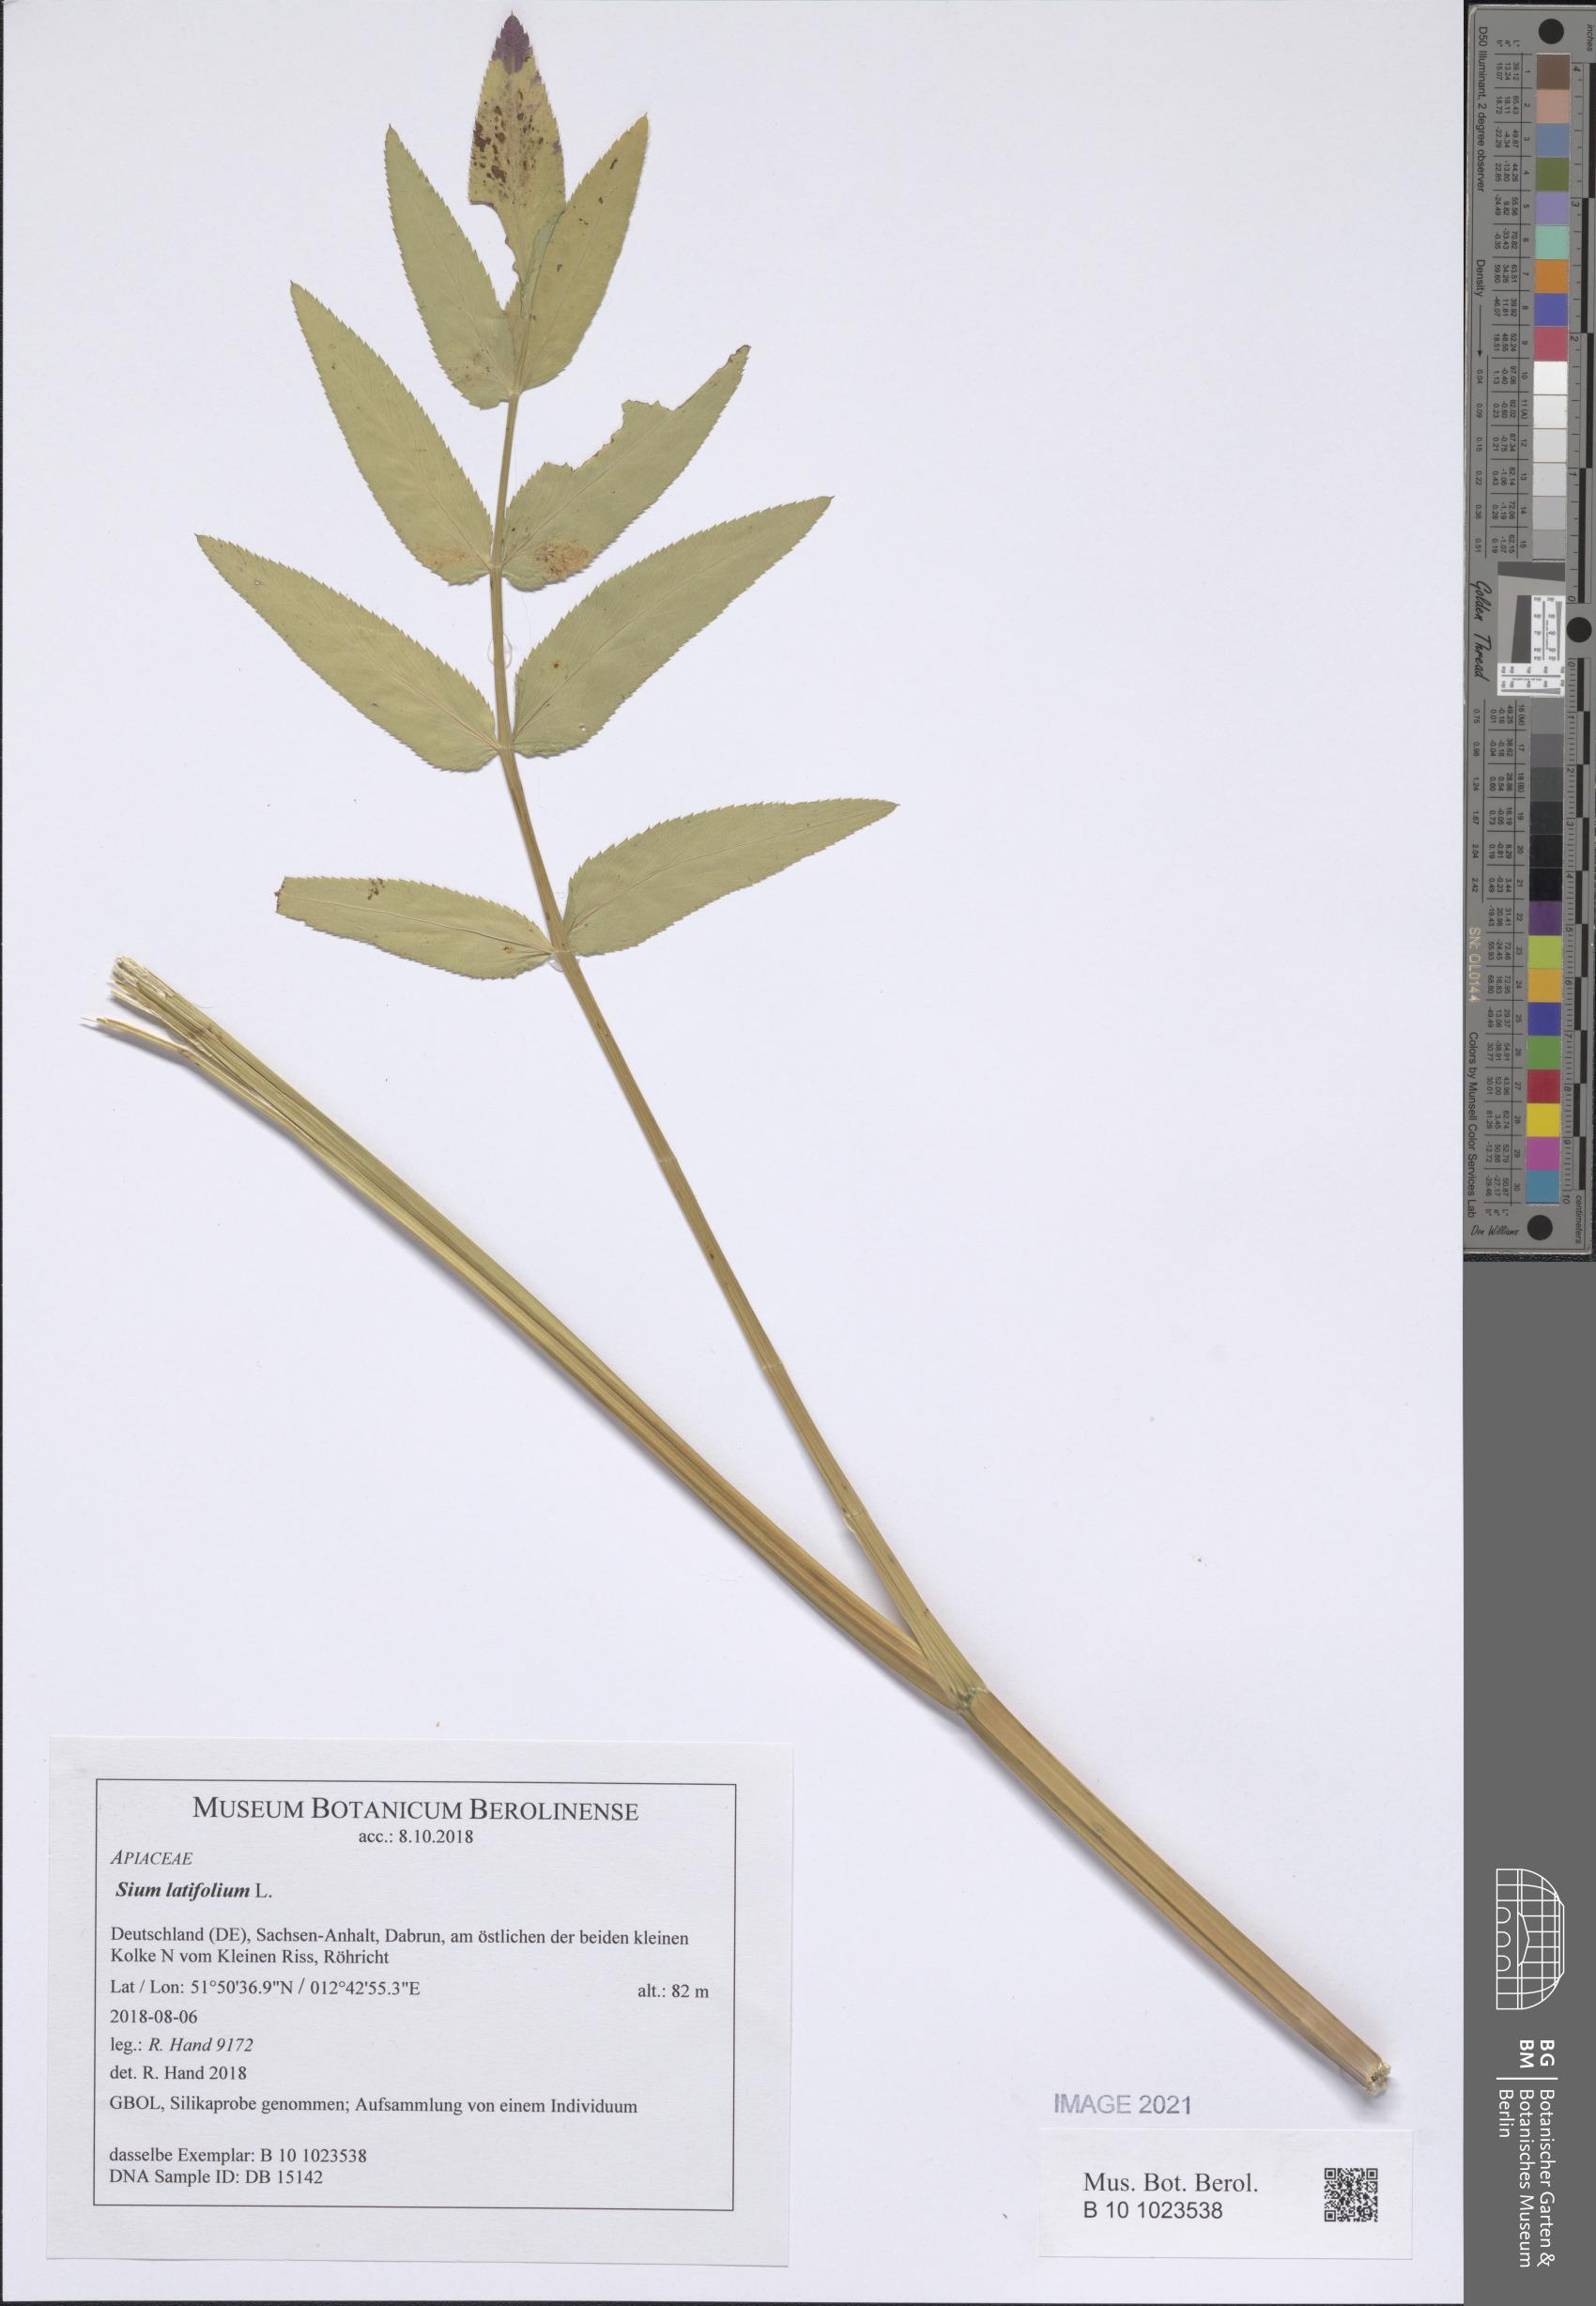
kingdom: Plantae
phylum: Tracheophyta
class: Magnoliopsida
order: Apiales
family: Apiaceae
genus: Sium
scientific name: Sium latifolium
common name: Greater water-parsnip
